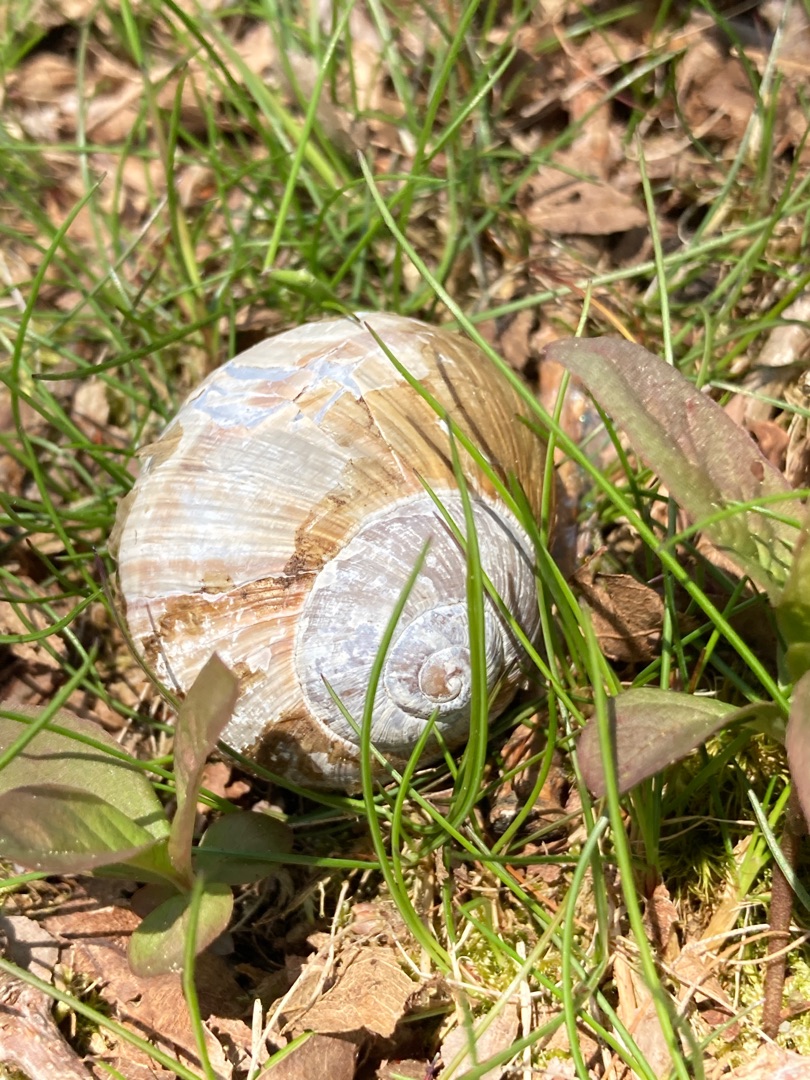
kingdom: Animalia
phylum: Mollusca
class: Gastropoda
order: Stylommatophora
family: Helicidae
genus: Helix
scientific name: Helix pomatia
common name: Vinbjergsnegl
